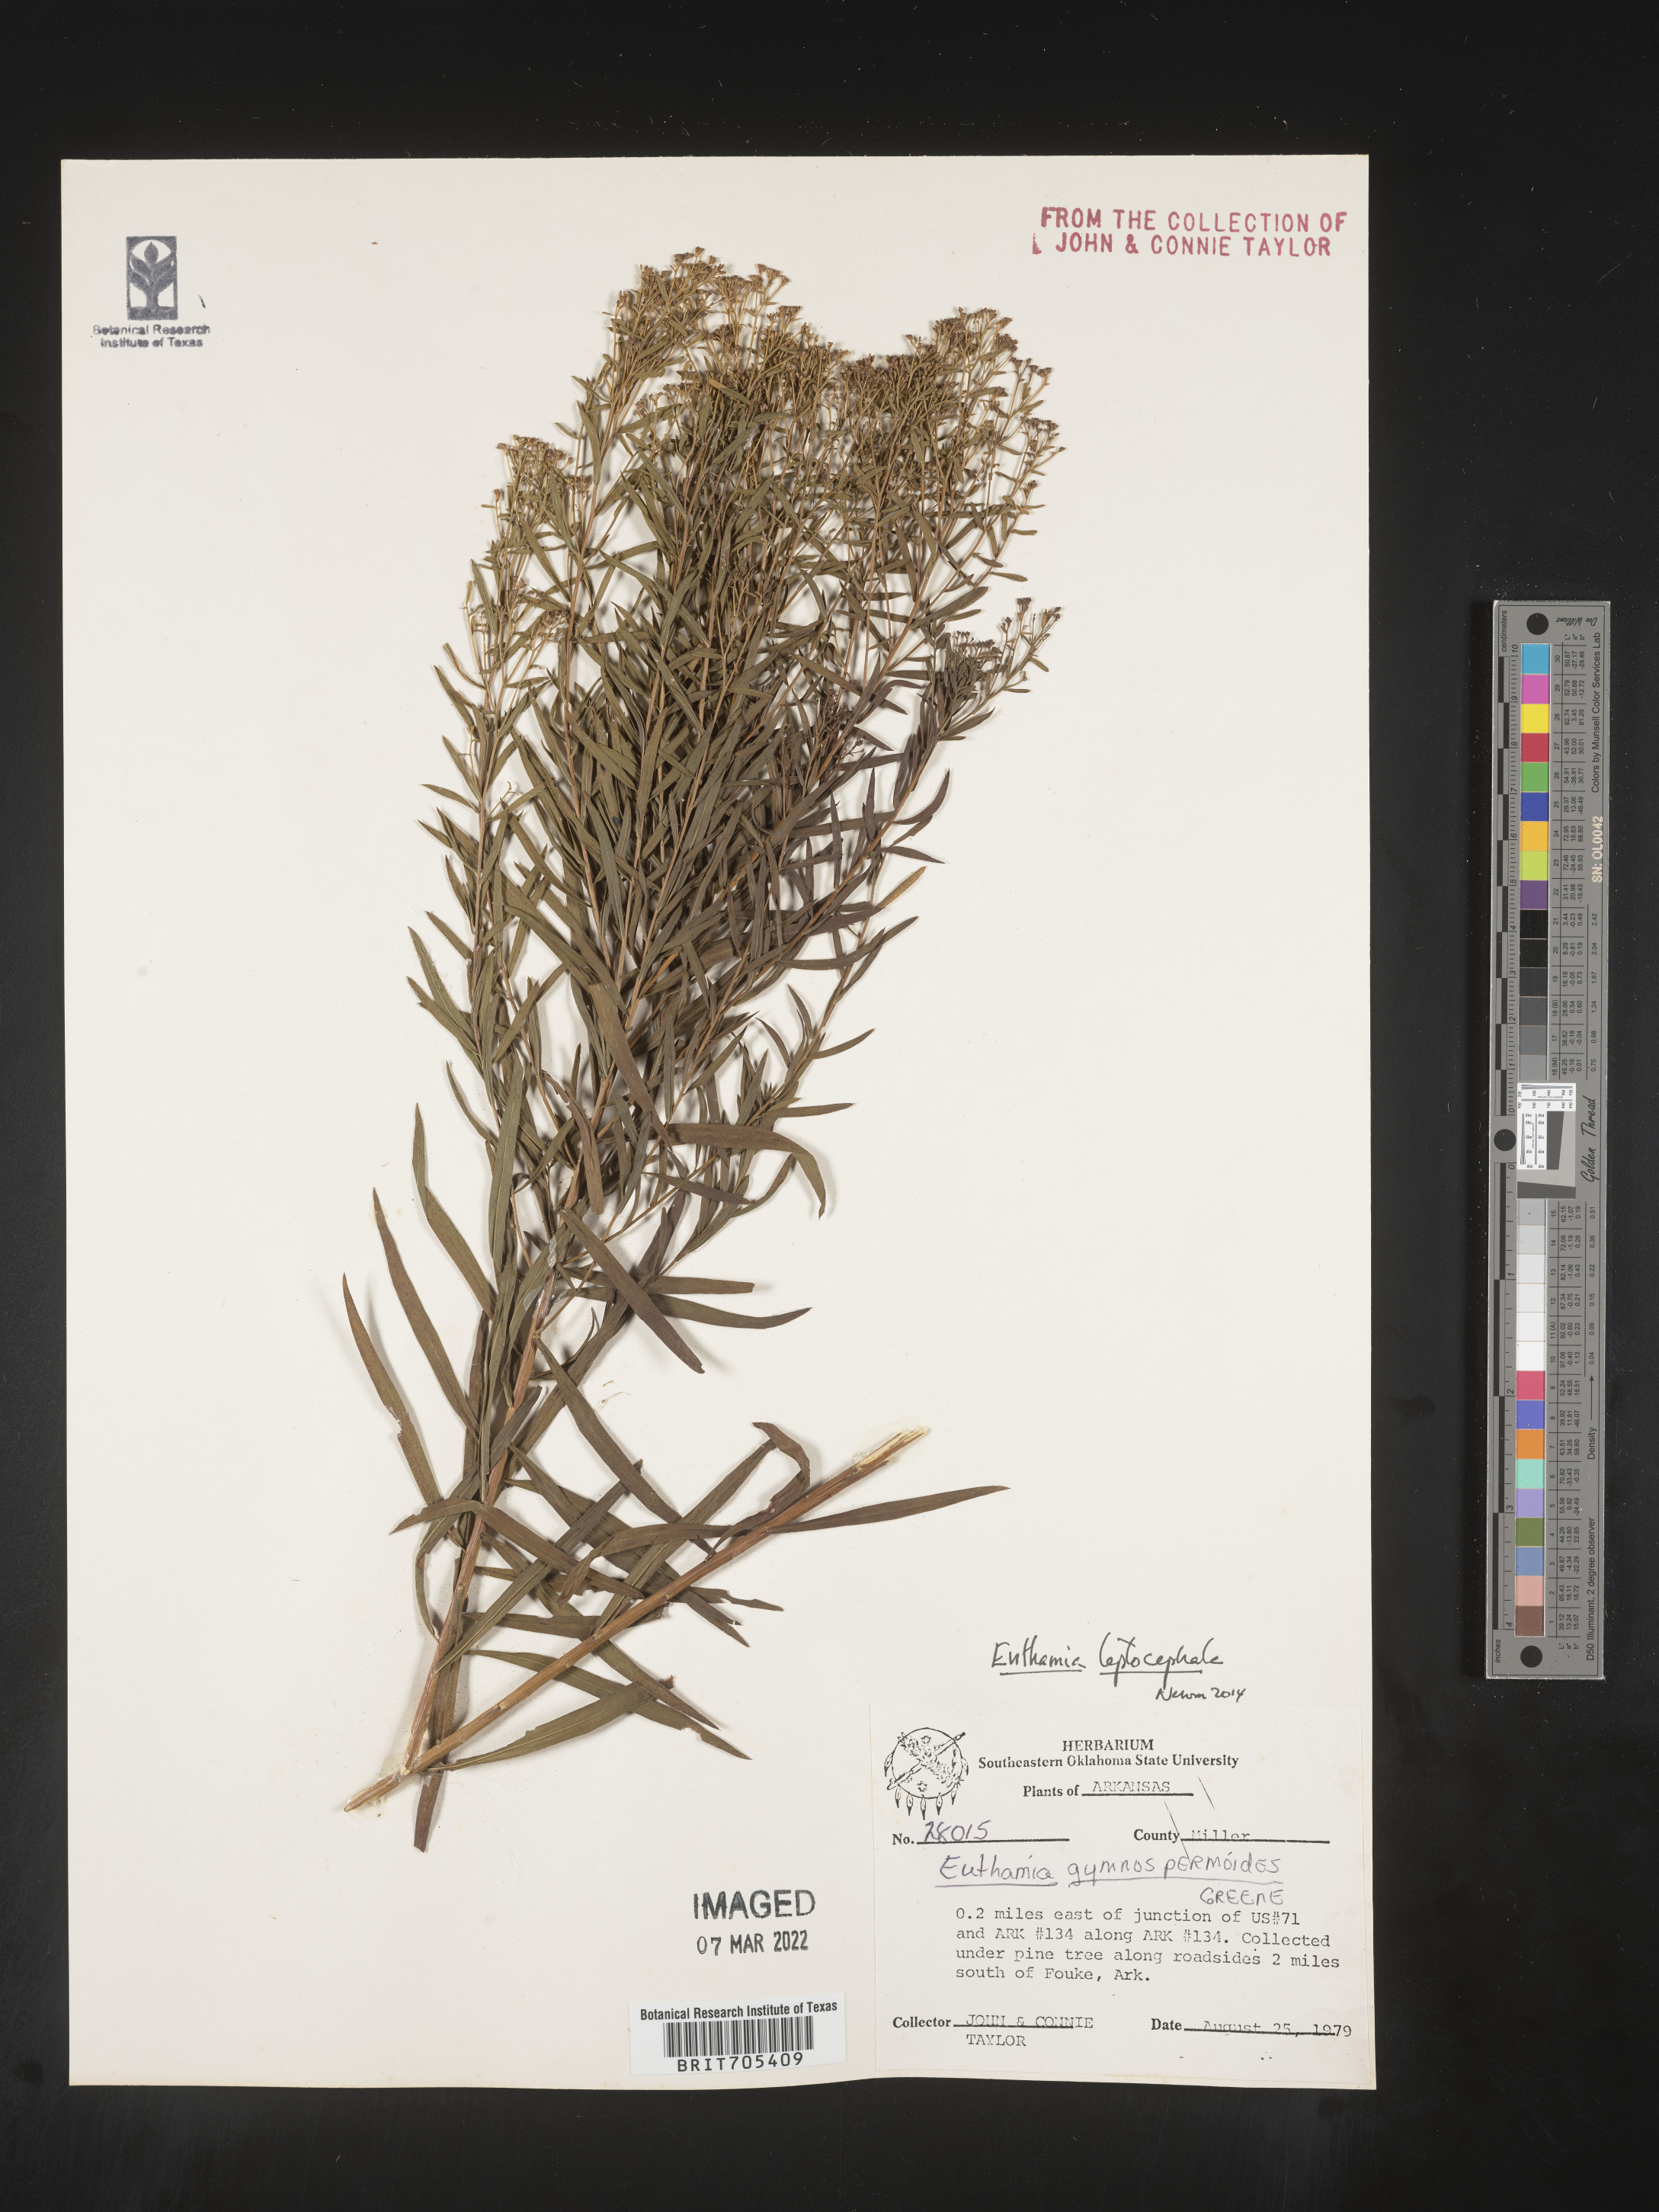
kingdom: Plantae
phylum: Tracheophyta
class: Magnoliopsida
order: Asterales
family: Asteraceae
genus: Euthamia
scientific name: Euthamia leptocephala
